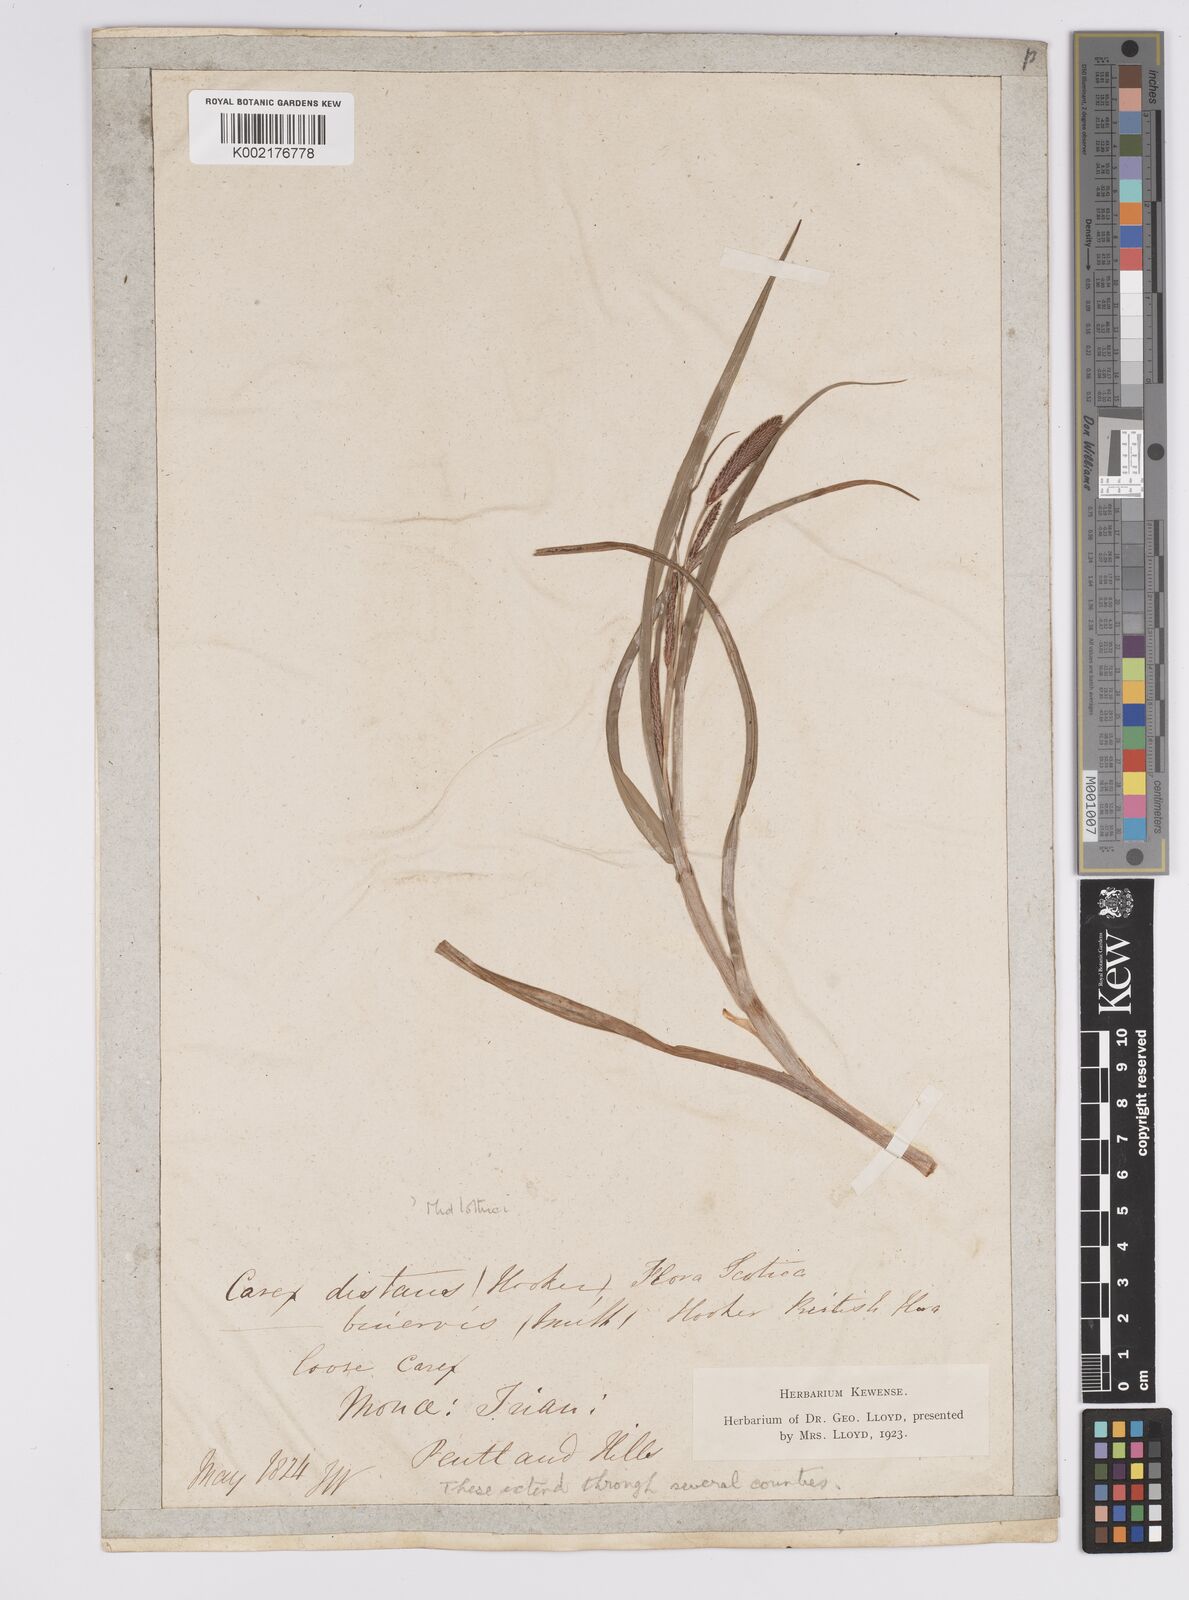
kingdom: Plantae
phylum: Tracheophyta
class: Liliopsida
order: Poales
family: Cyperaceae
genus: Carex
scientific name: Carex binervis
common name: Green-ribbed sedge
